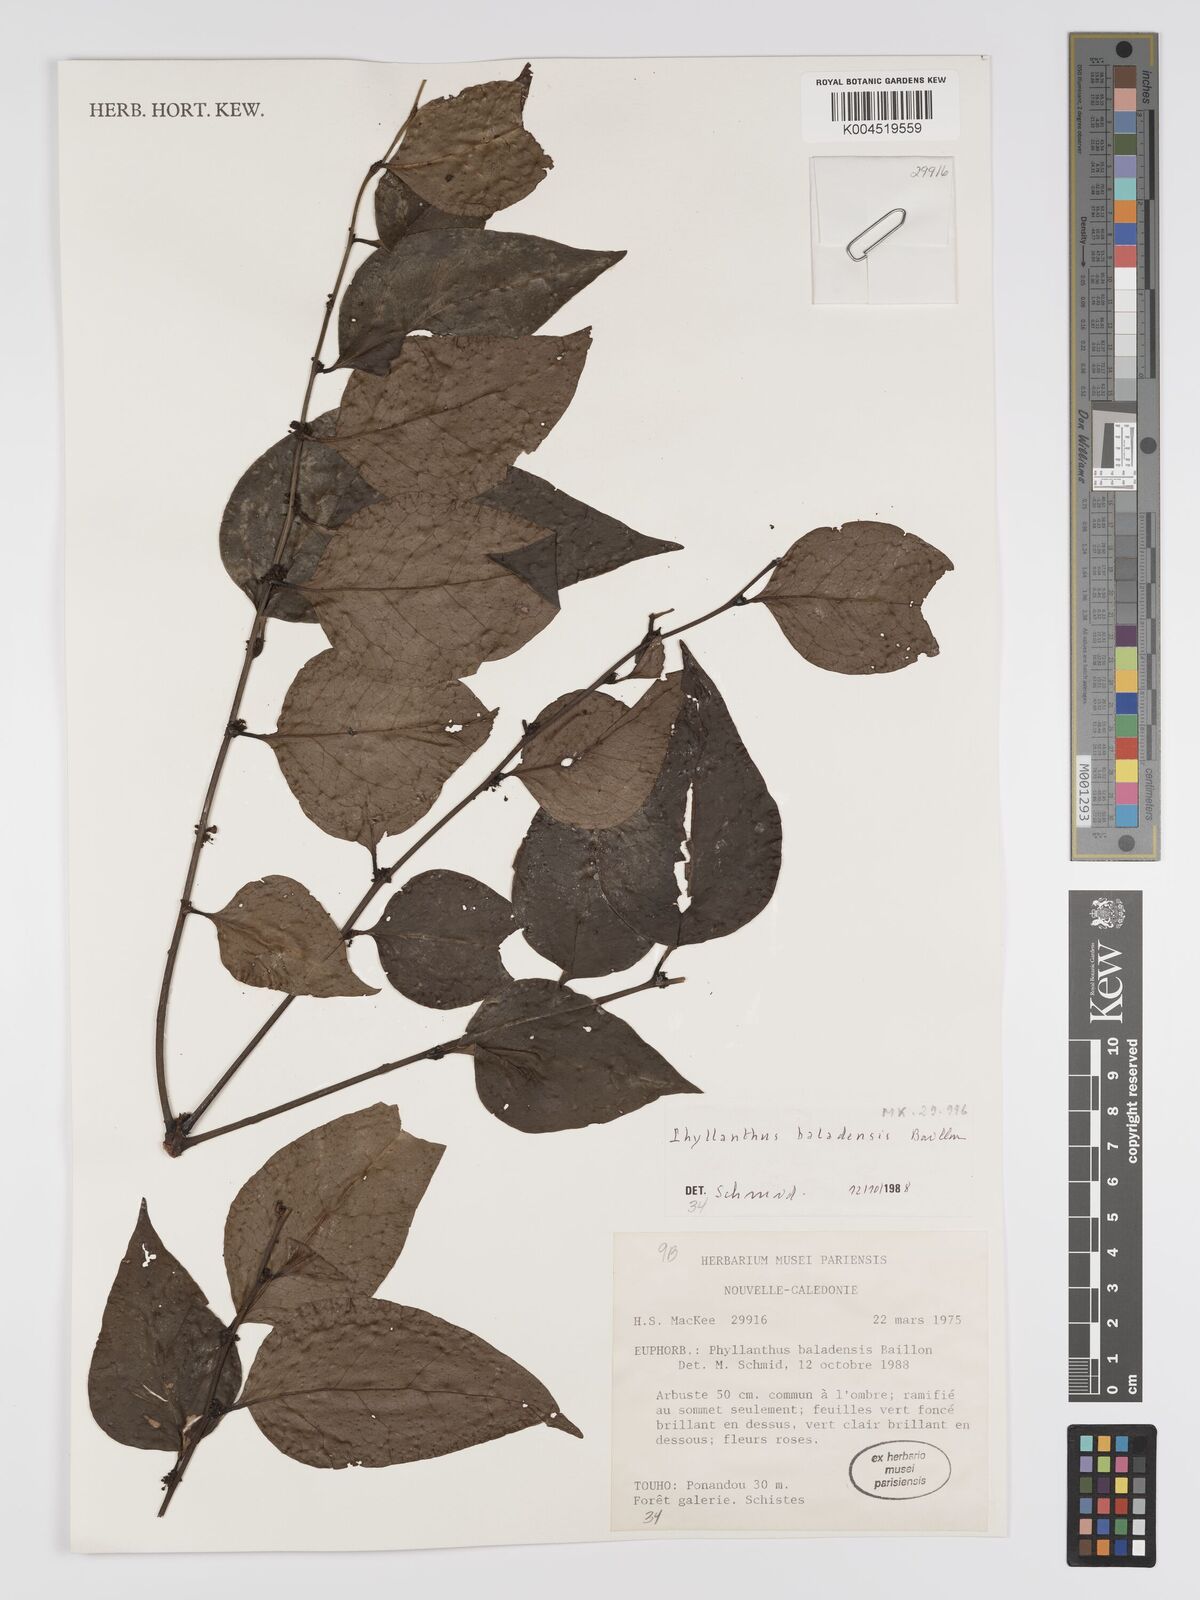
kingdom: Plantae
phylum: Tracheophyta
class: Magnoliopsida
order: Malpighiales
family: Phyllanthaceae
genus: Phyllanthus
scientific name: Phyllanthus baladensis
